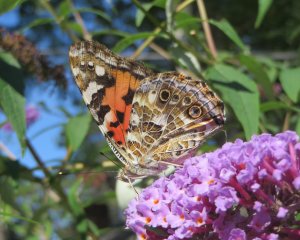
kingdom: Animalia
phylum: Arthropoda
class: Insecta
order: Lepidoptera
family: Nymphalidae
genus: Vanessa
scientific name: Vanessa cardui
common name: Painted Lady
